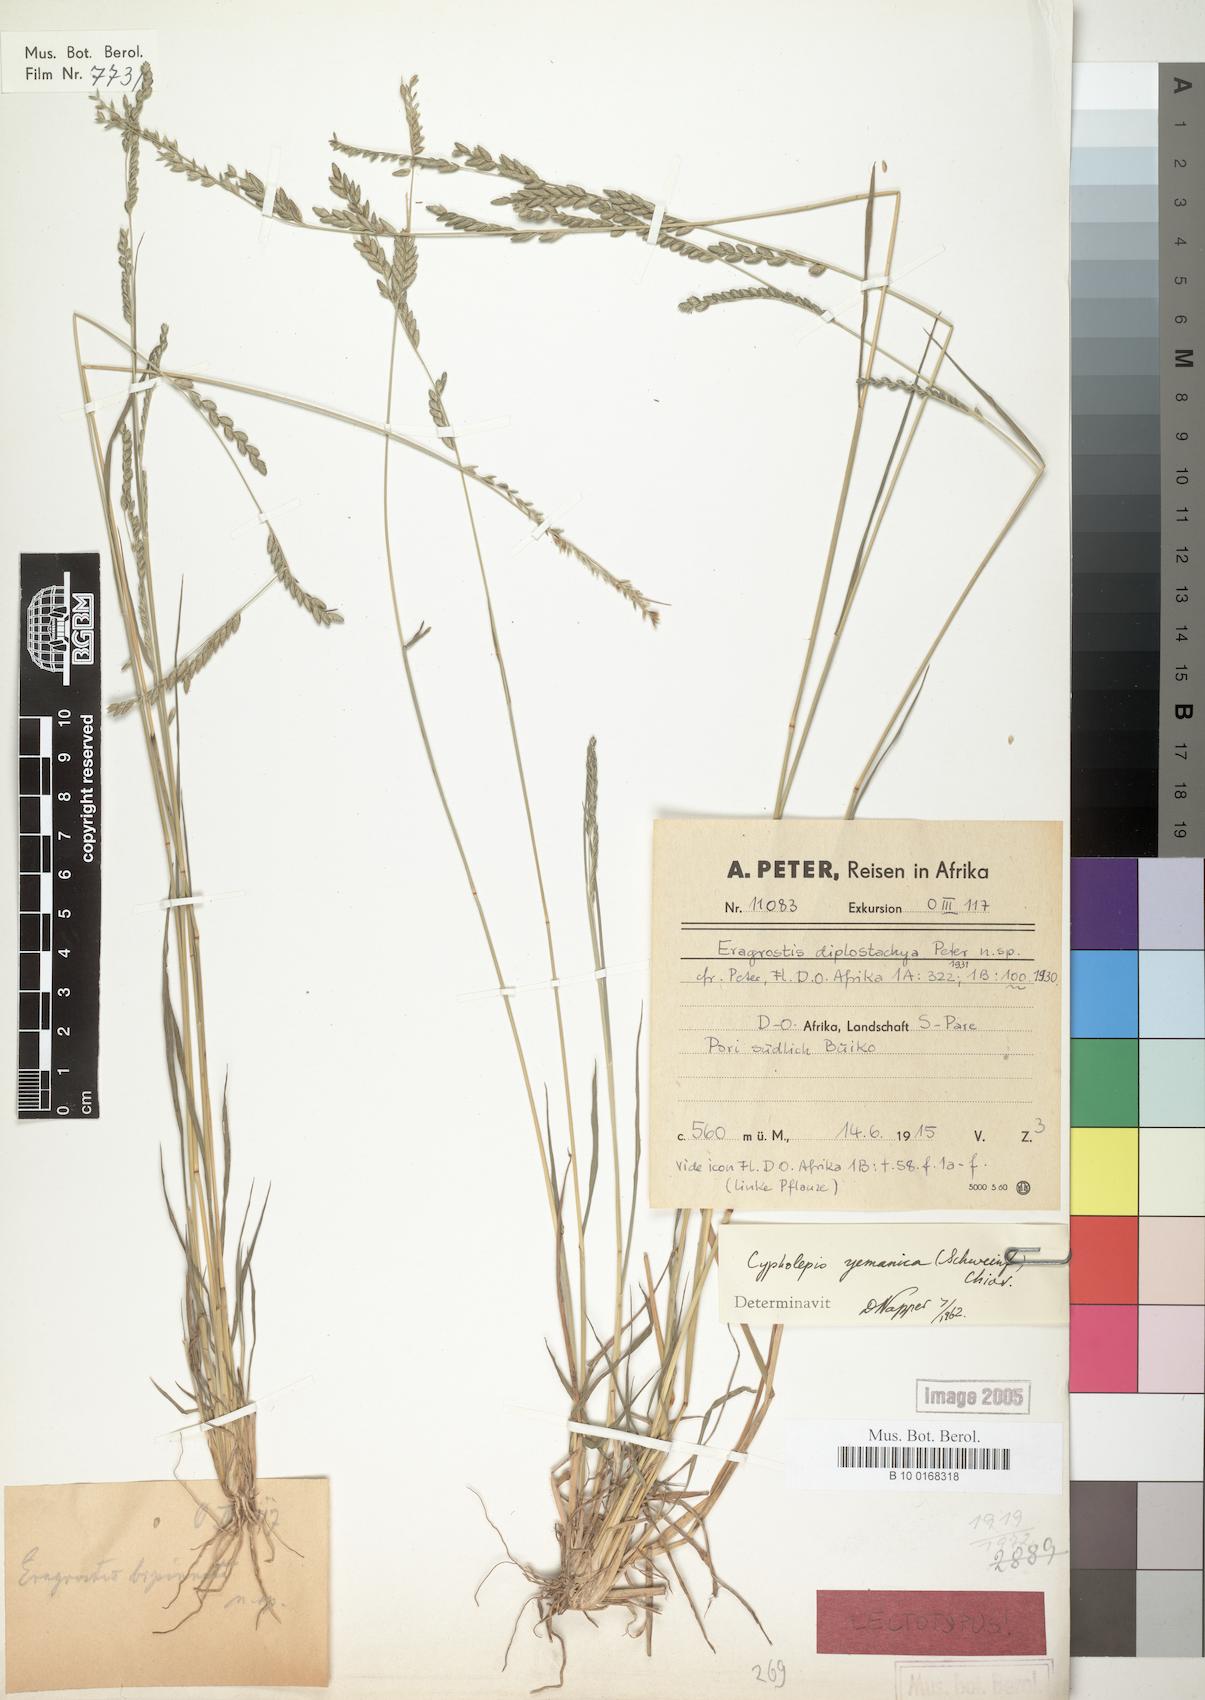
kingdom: Plantae
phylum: Tracheophyta
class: Liliopsida
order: Poales
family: Poaceae
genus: Disakisperma
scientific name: Disakisperma yemenicum
